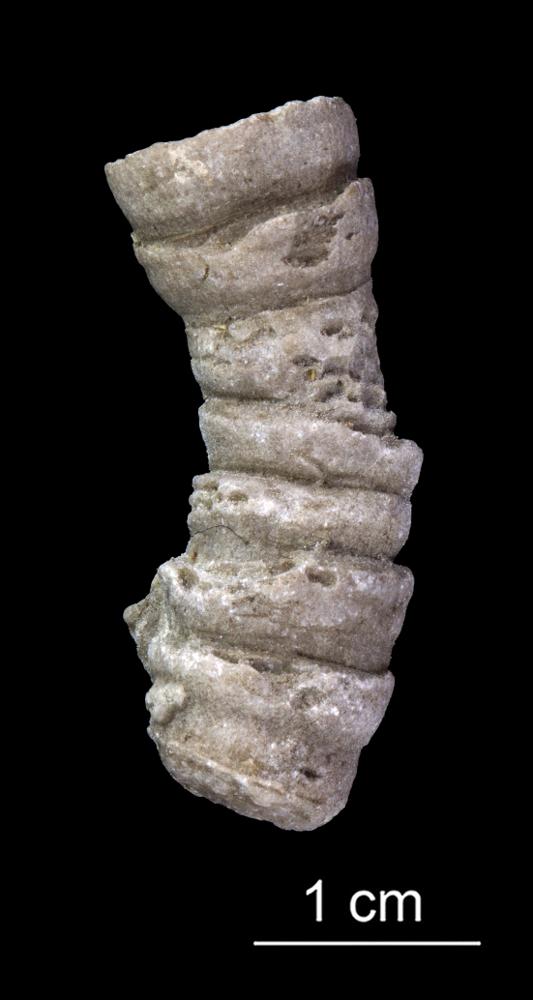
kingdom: Animalia
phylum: Cnidaria
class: Anthozoa
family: Cyathophyllidae
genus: Cystiphyllum
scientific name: Cystiphyllum
